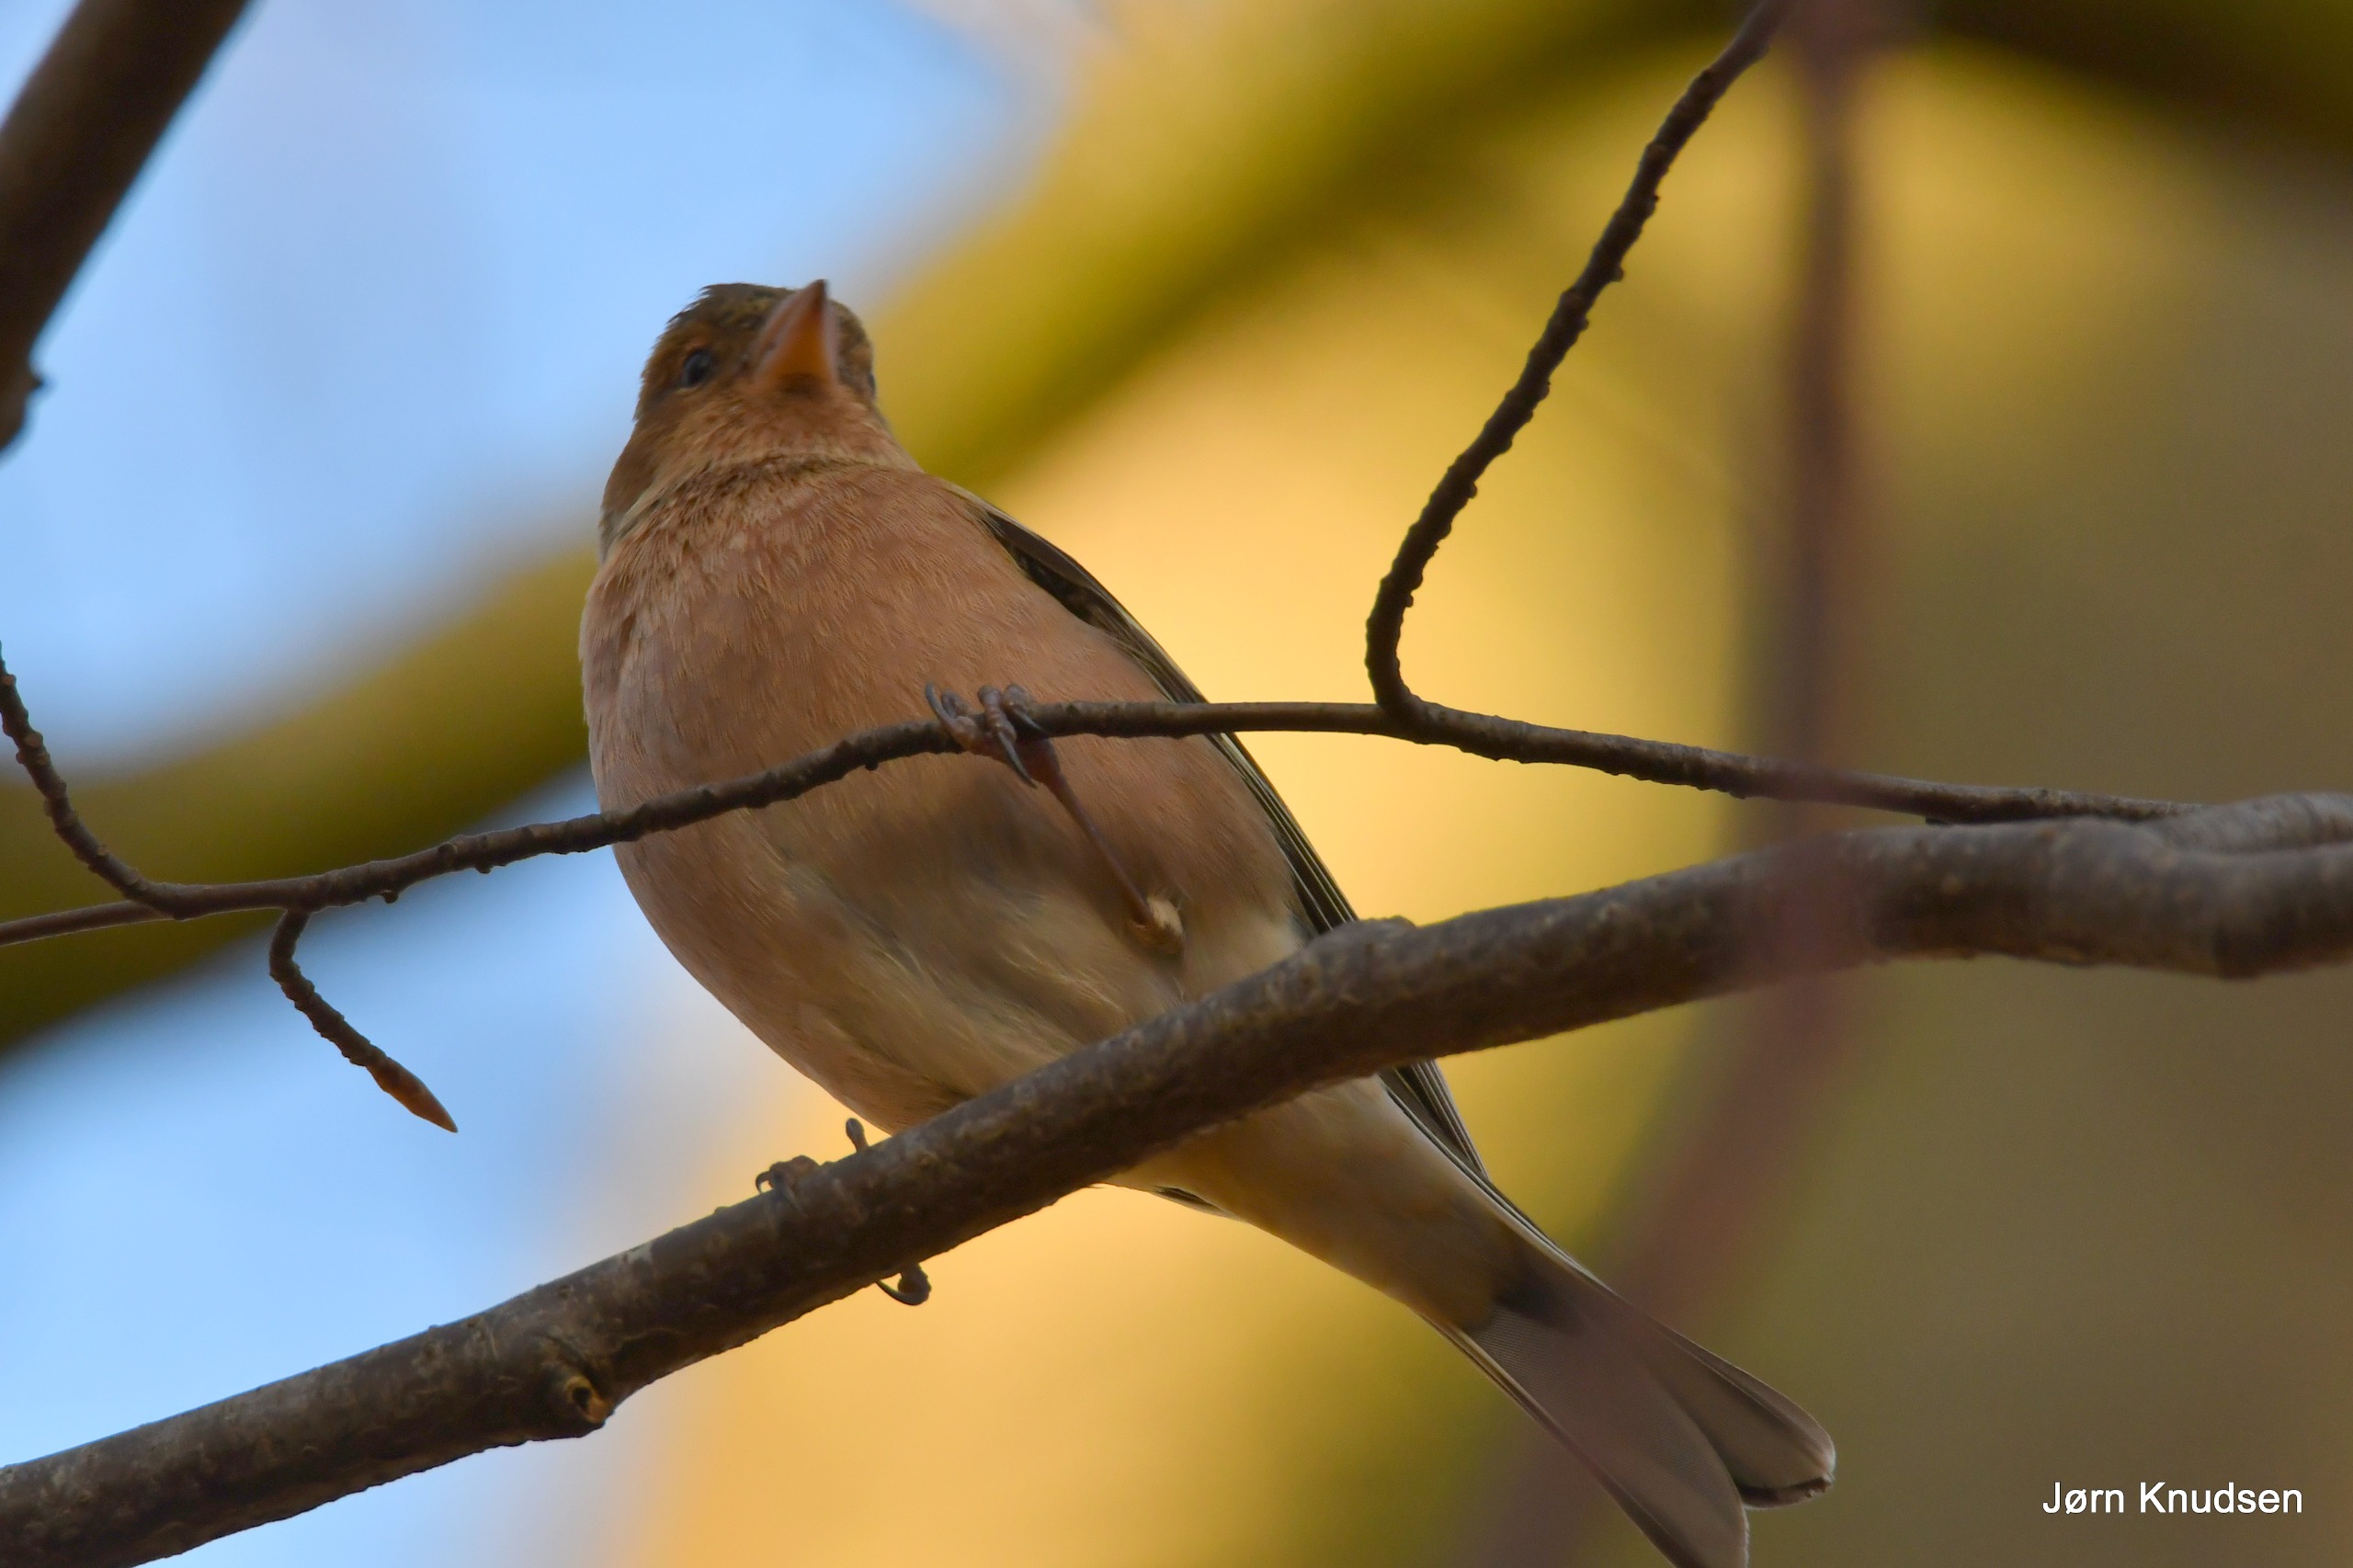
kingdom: Animalia
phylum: Chordata
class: Aves
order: Passeriformes
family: Fringillidae
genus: Fringilla
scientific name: Fringilla coelebs
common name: Bogfinke
